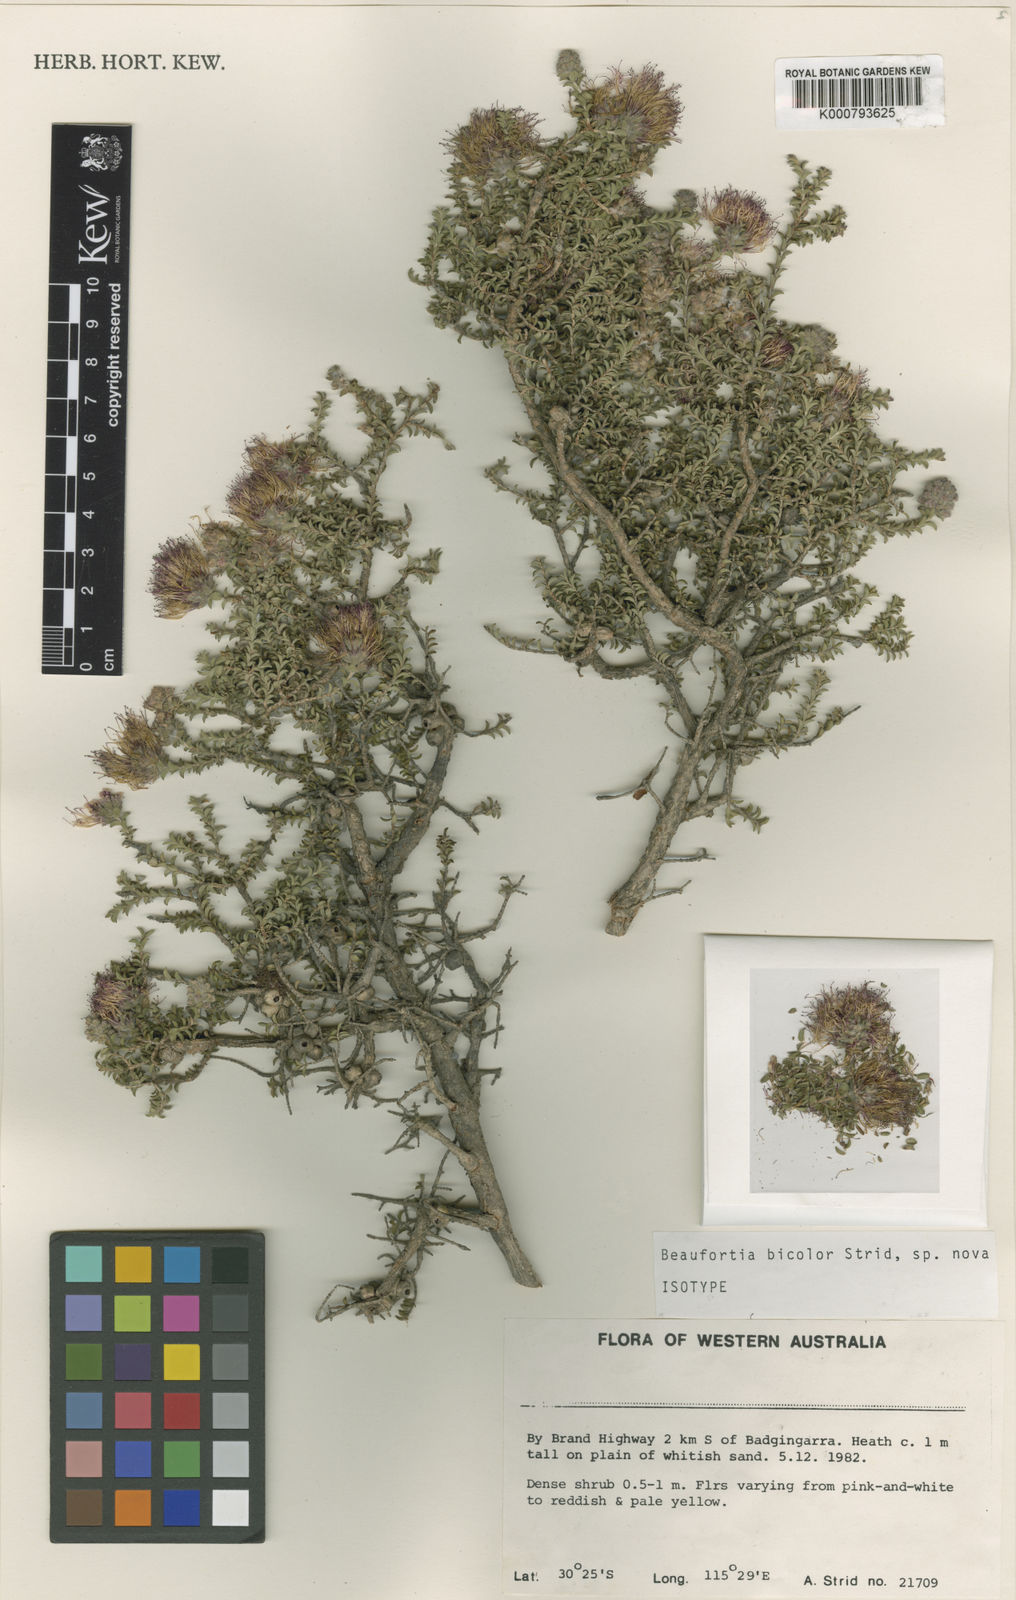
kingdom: Plantae
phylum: Tracheophyta
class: Magnoliopsida
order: Myrtales
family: Myrtaceae
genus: Melaleuca
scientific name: Melaleuca variegata
